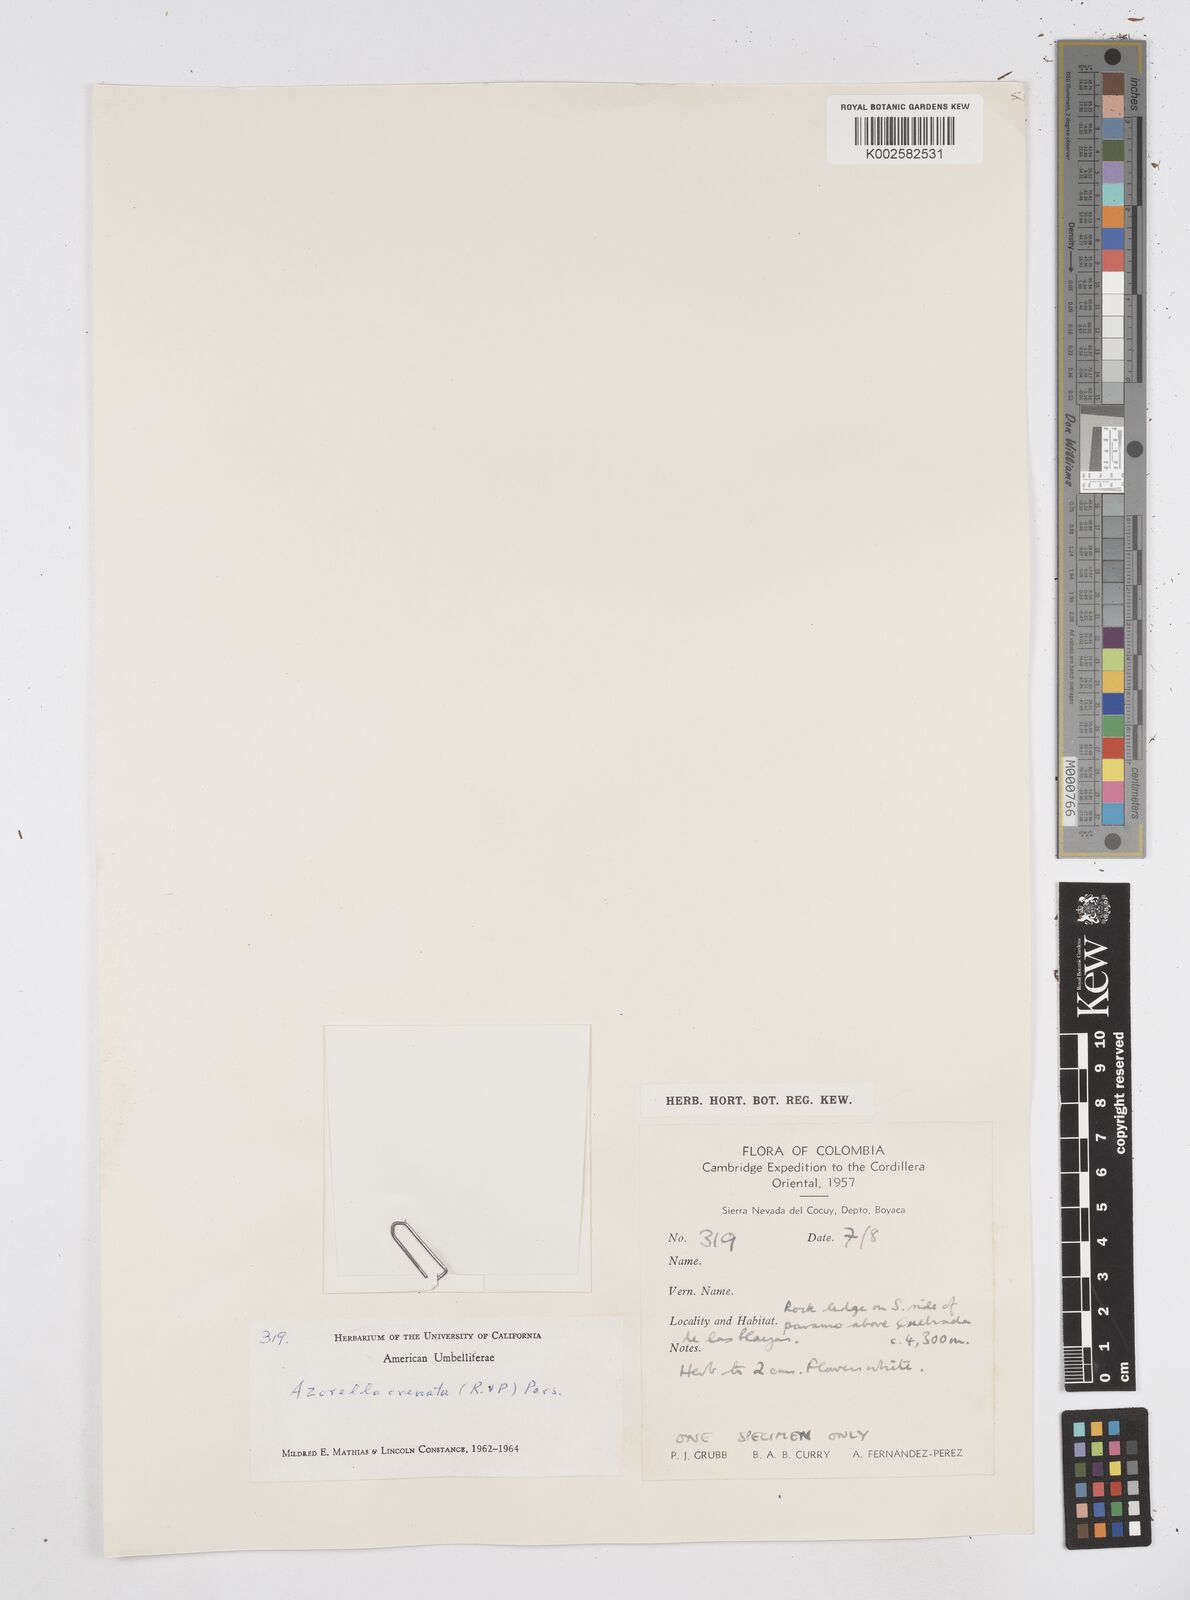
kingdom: Plantae
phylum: Tracheophyta
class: Magnoliopsida
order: Apiales
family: Apiaceae
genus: Azorella
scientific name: Azorella crenata
